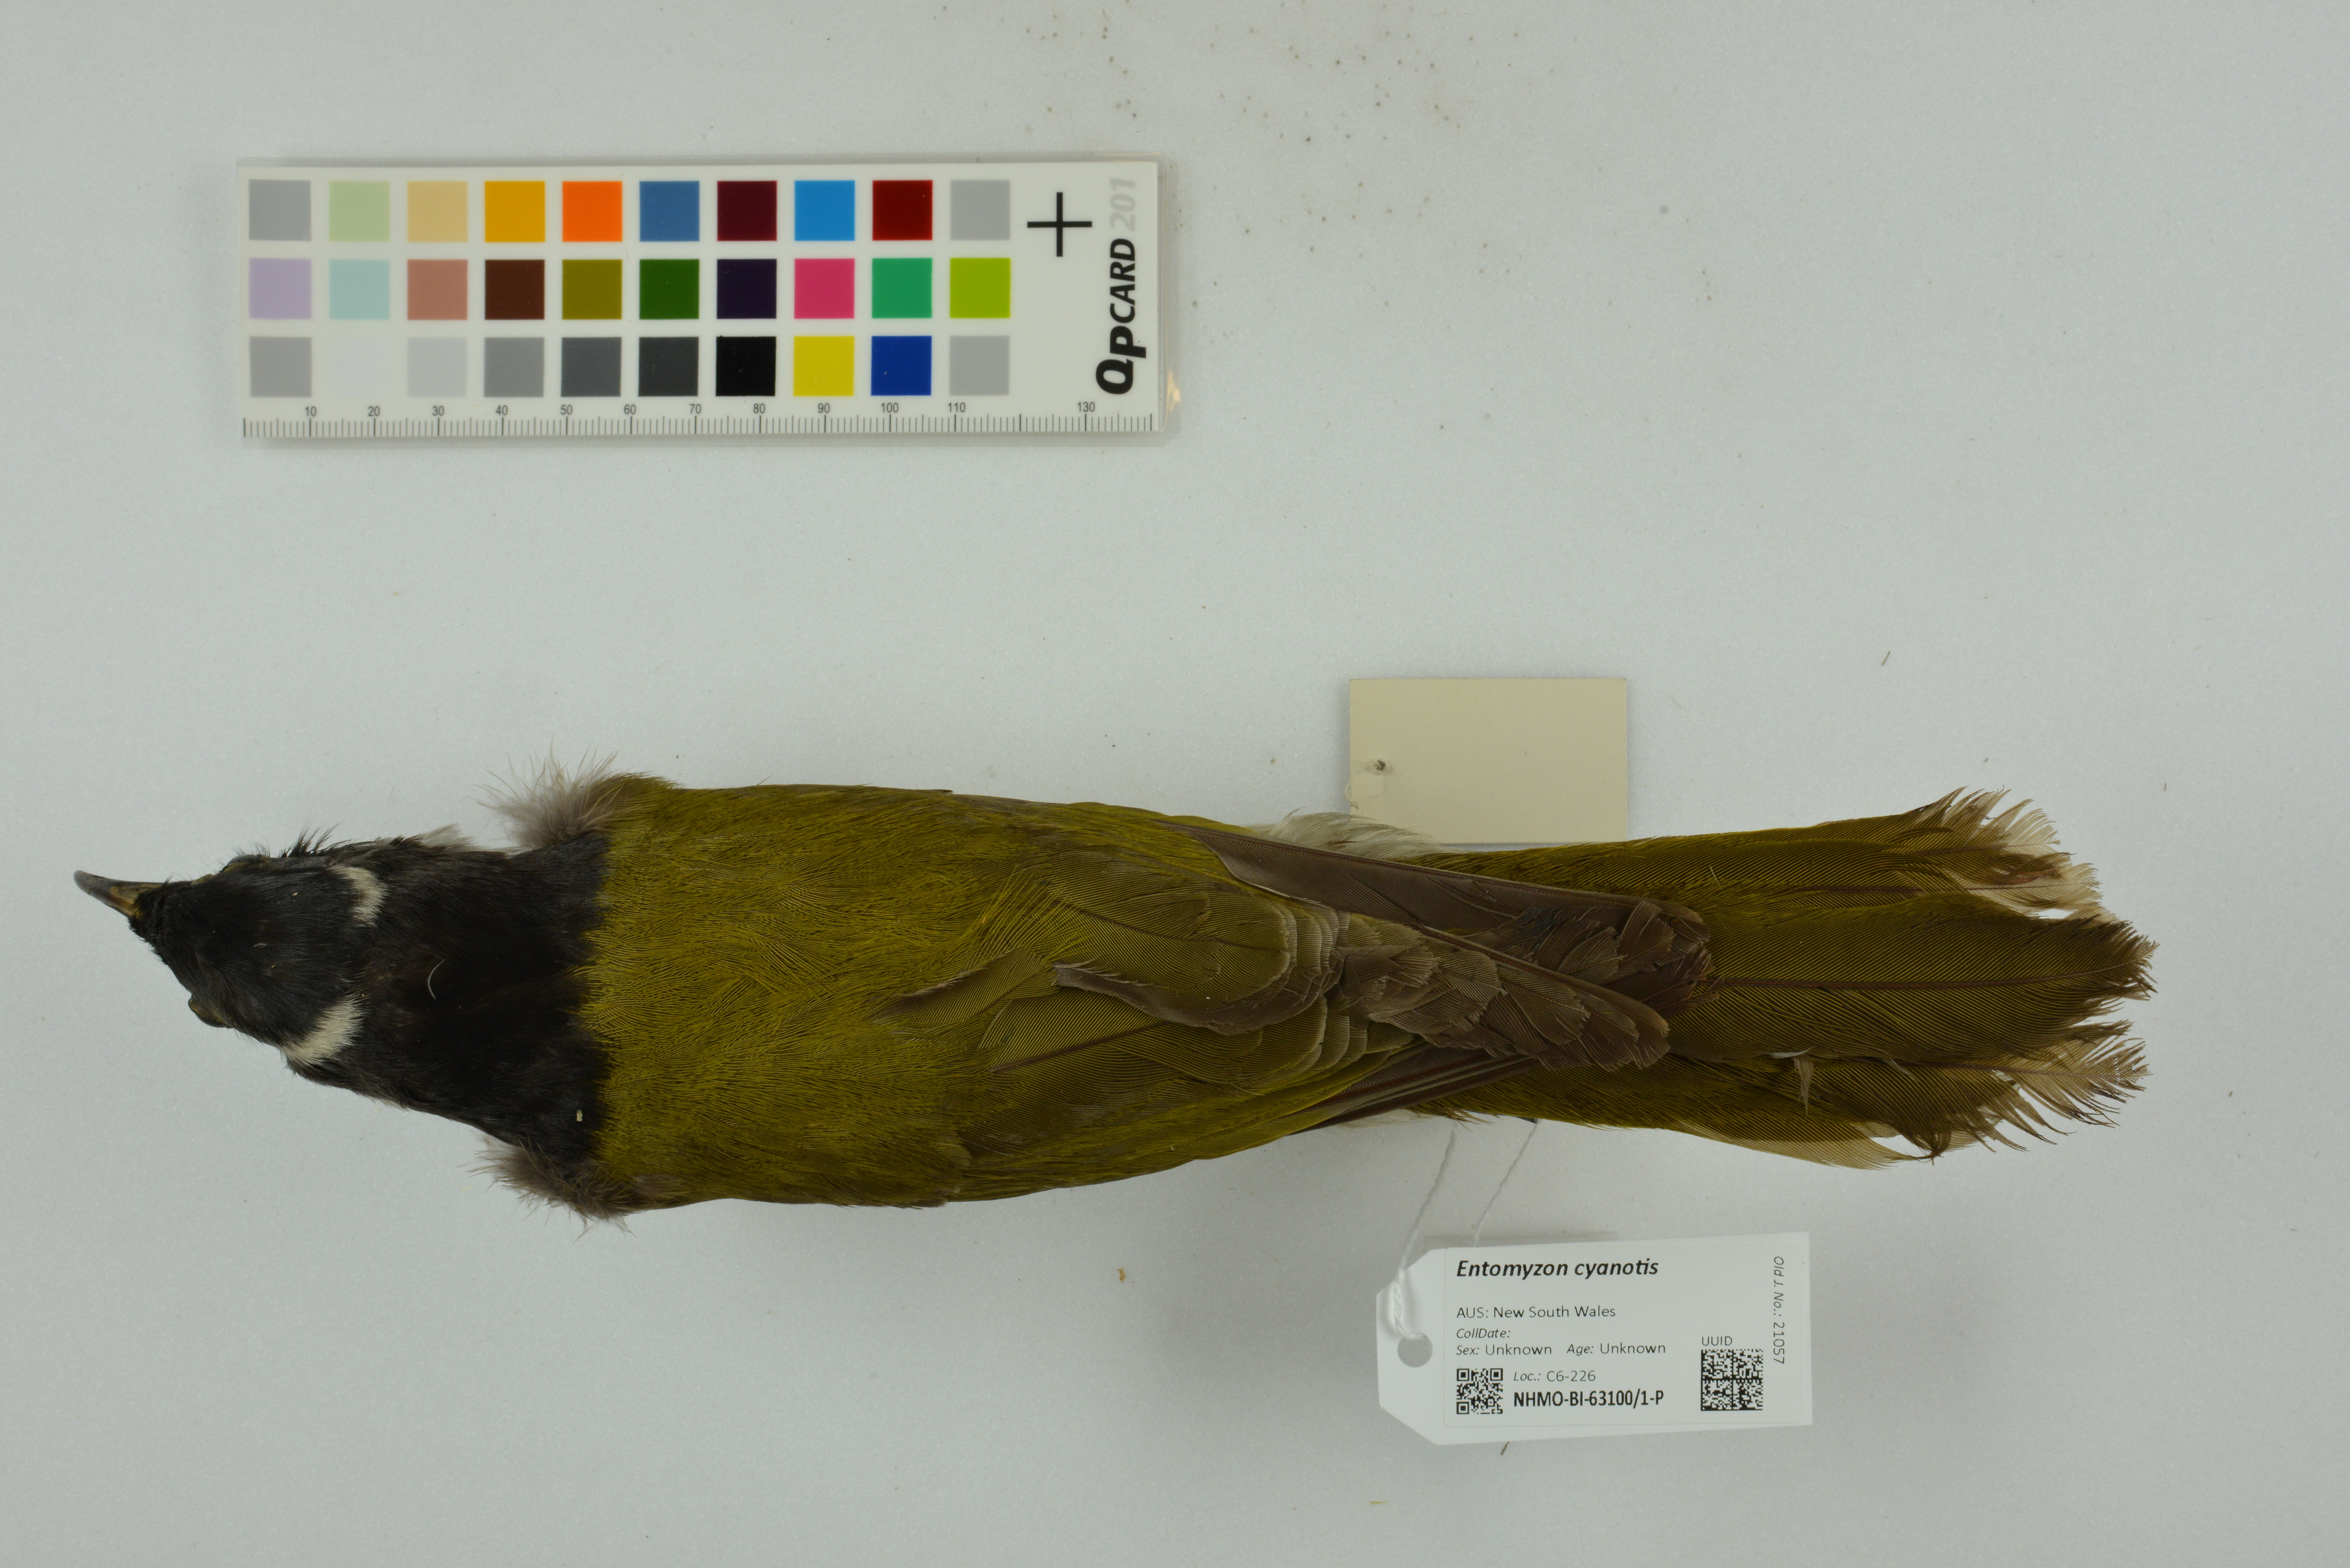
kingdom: Animalia
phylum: Chordata
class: Aves
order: Passeriformes
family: Meliphagidae
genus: Entomyzon
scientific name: Entomyzon cyanotis
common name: Blue-faced honeyeater
